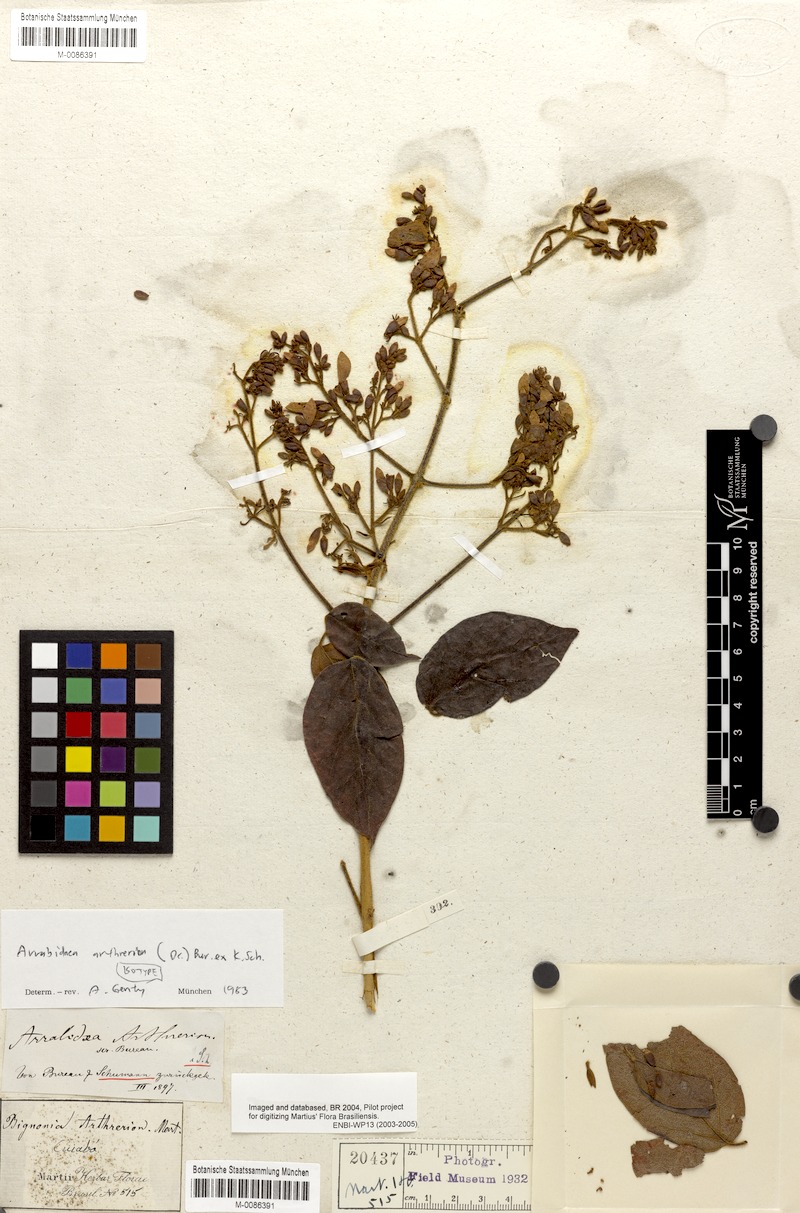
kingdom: Plantae
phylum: Tracheophyta
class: Magnoliopsida
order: Lamiales
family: Bignoniaceae
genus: Fridericia
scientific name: Fridericia arthrerion
